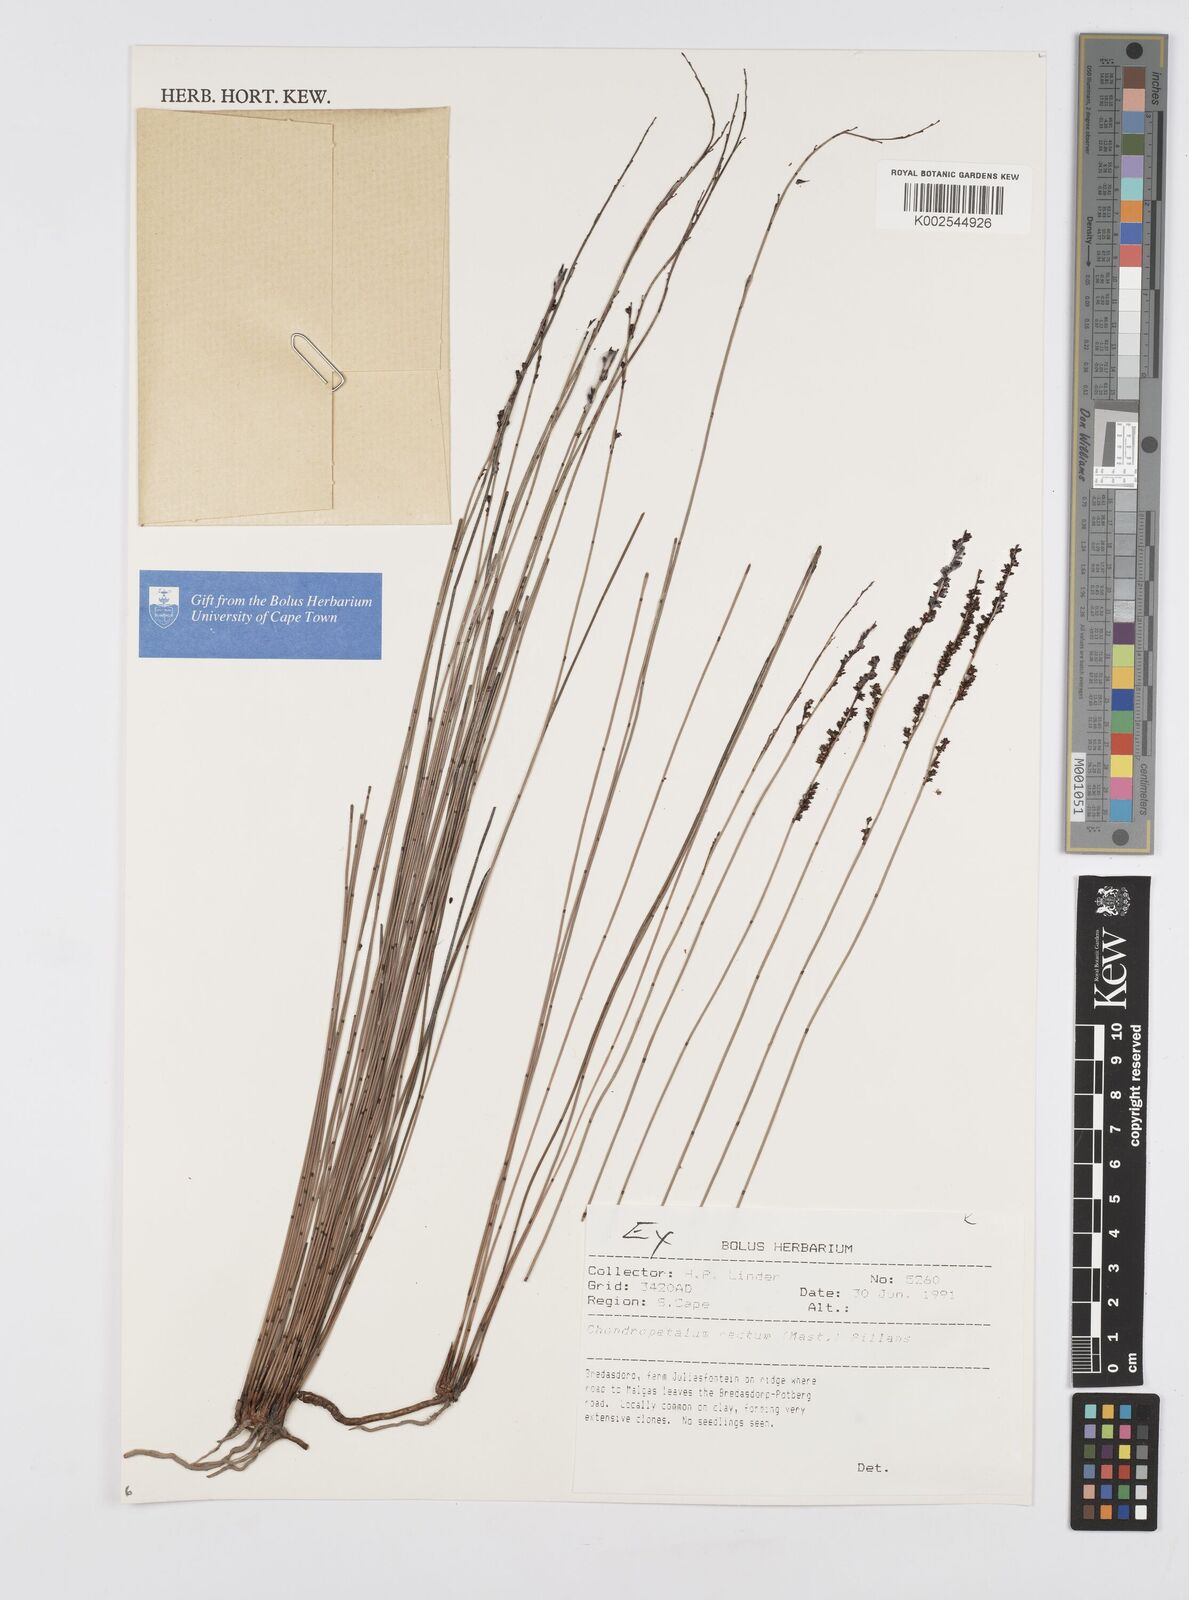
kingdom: Plantae
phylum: Tracheophyta
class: Liliopsida
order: Poales
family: Restionaceae
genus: Elegia
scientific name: Elegia recta
